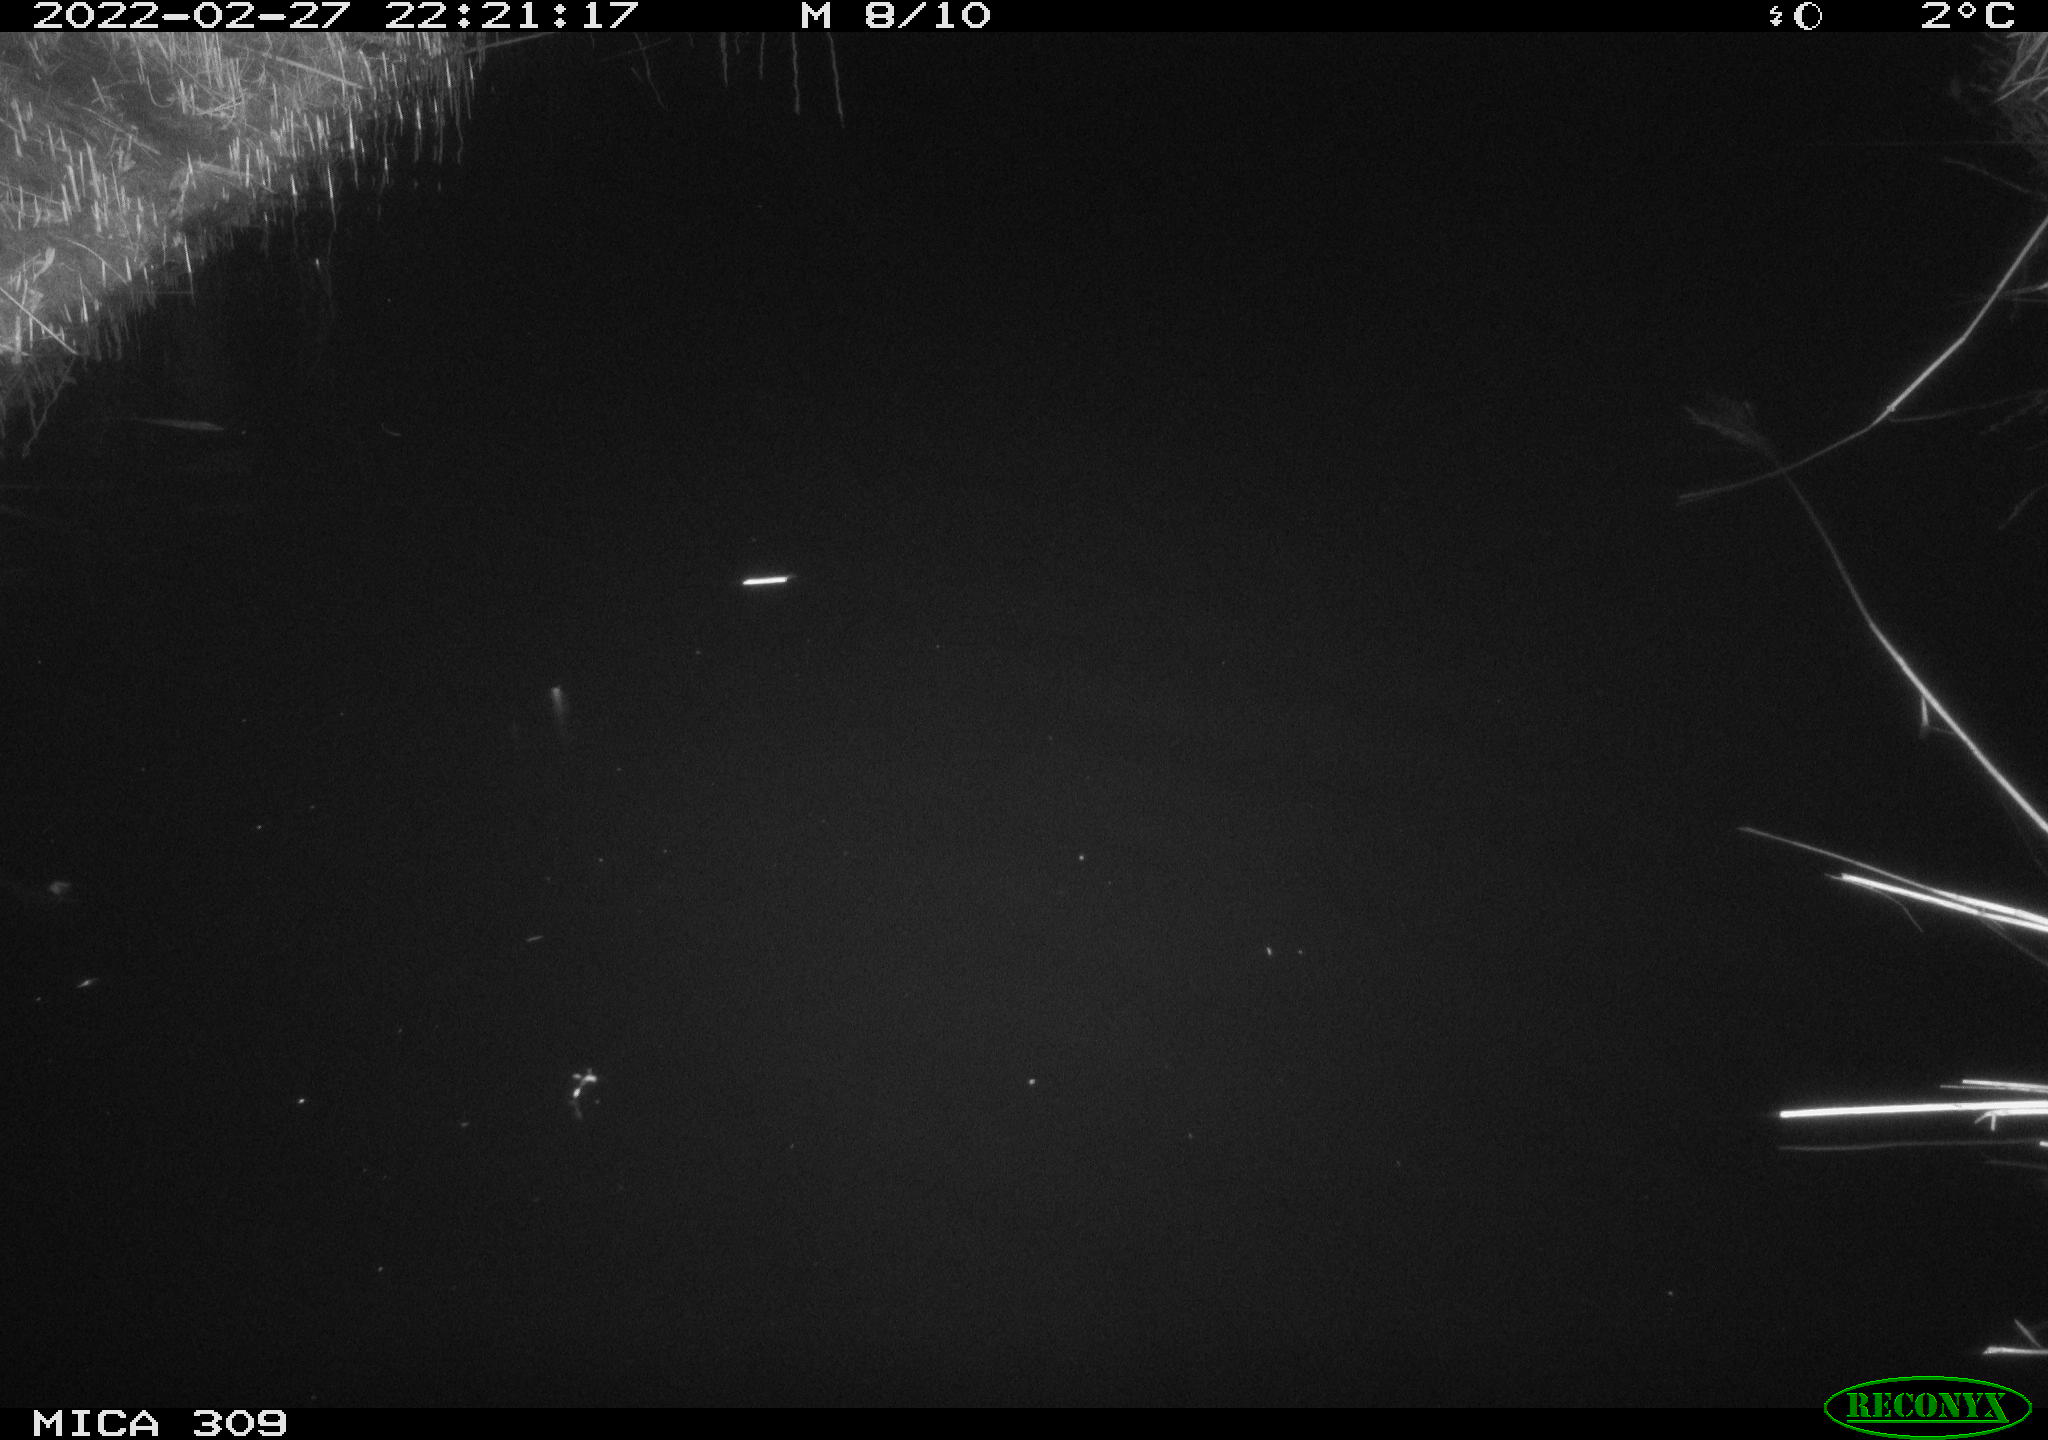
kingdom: Animalia
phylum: Chordata
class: Mammalia
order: Rodentia
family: Muridae
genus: Rattus
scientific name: Rattus norvegicus
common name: Brown rat
